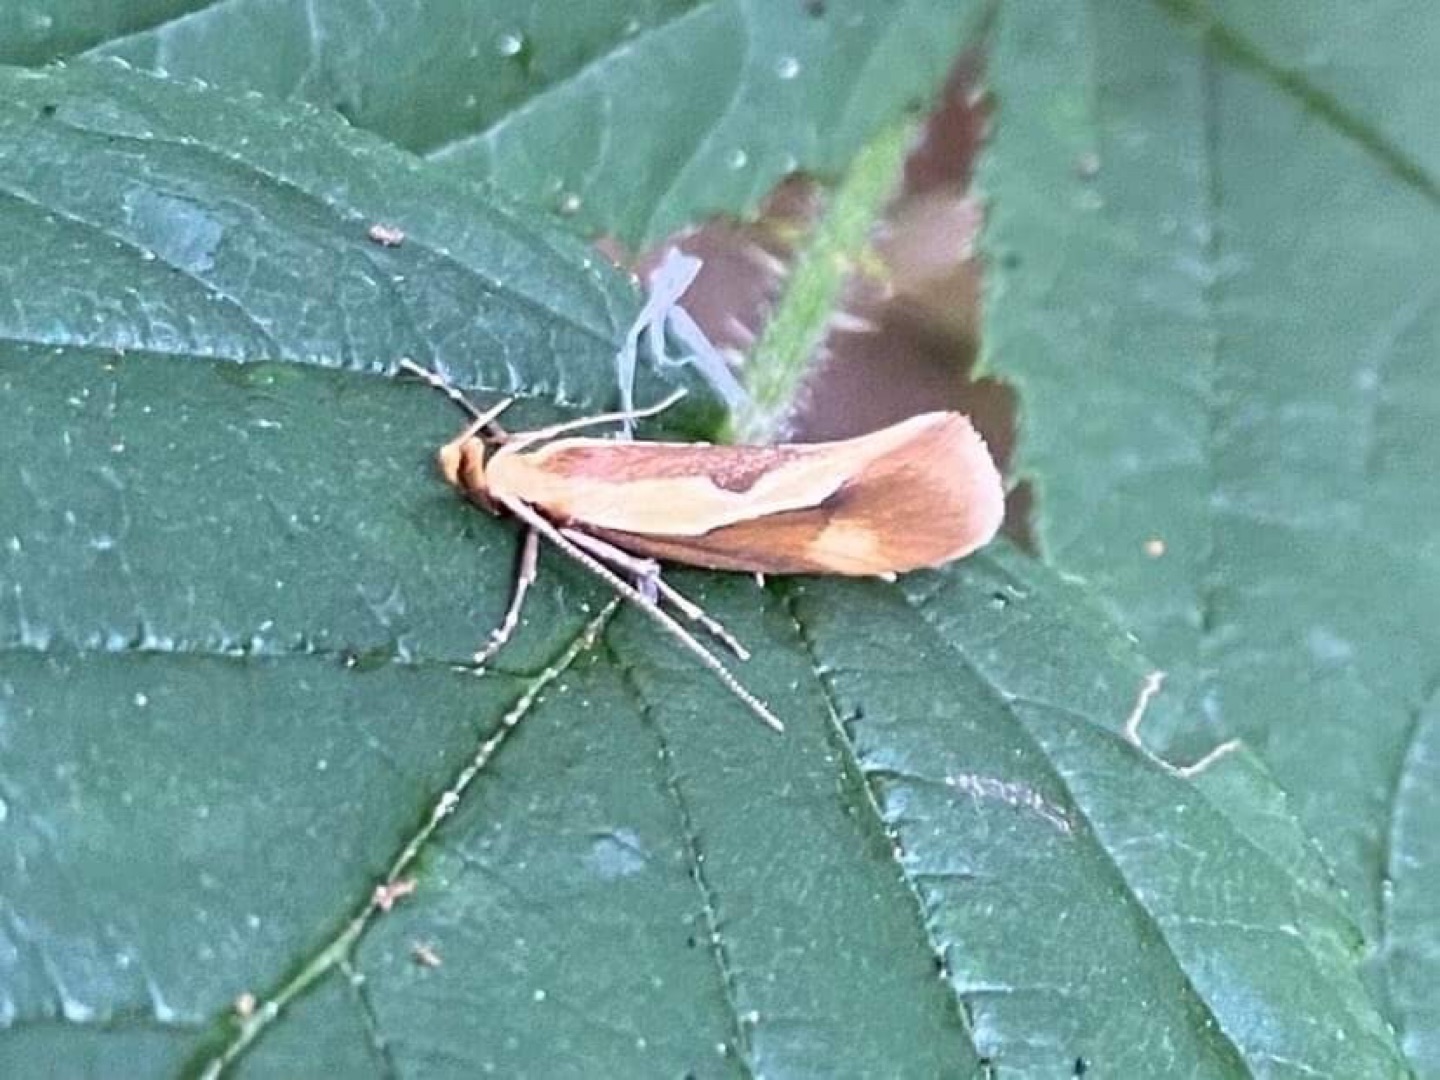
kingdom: Animalia
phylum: Arthropoda
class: Insecta
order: Lepidoptera
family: Oecophoridae
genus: Harpella
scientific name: Harpella forficella
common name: Kæmpeprydvinge
